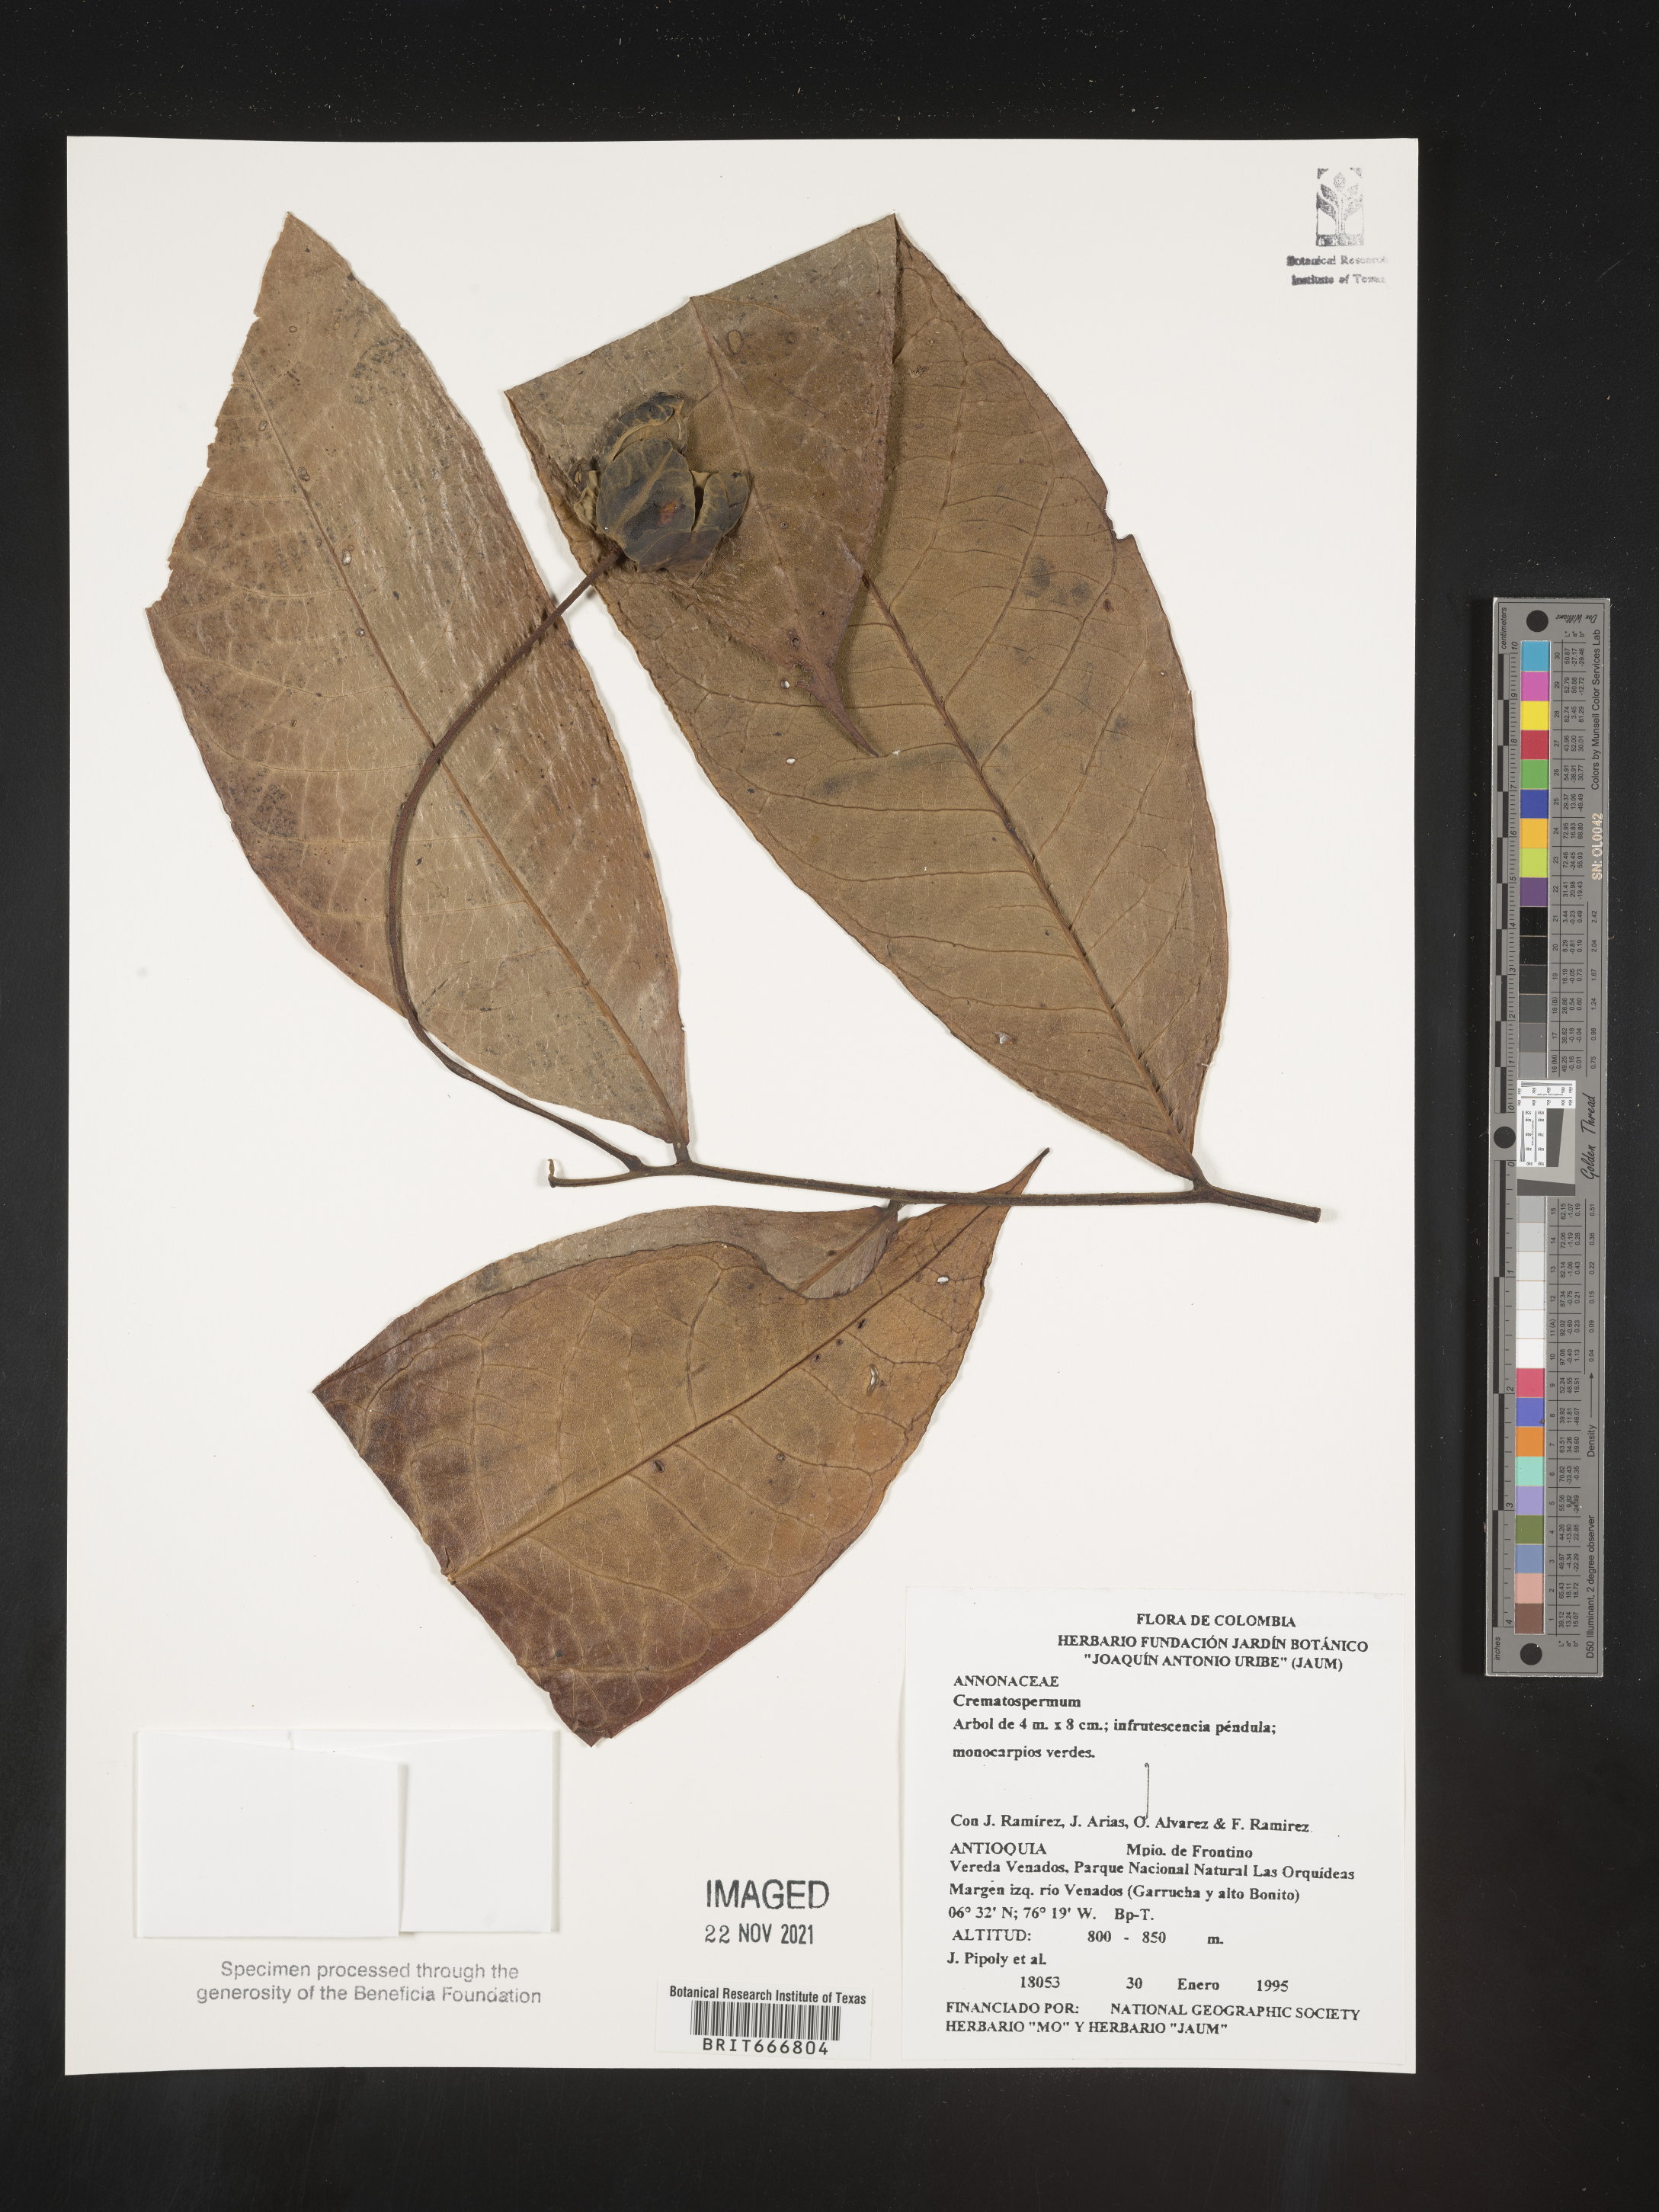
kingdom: Plantae
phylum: Tracheophyta
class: Magnoliopsida
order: Magnoliales
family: Annonaceae
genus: Cremastosperma
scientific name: Cremastosperma
